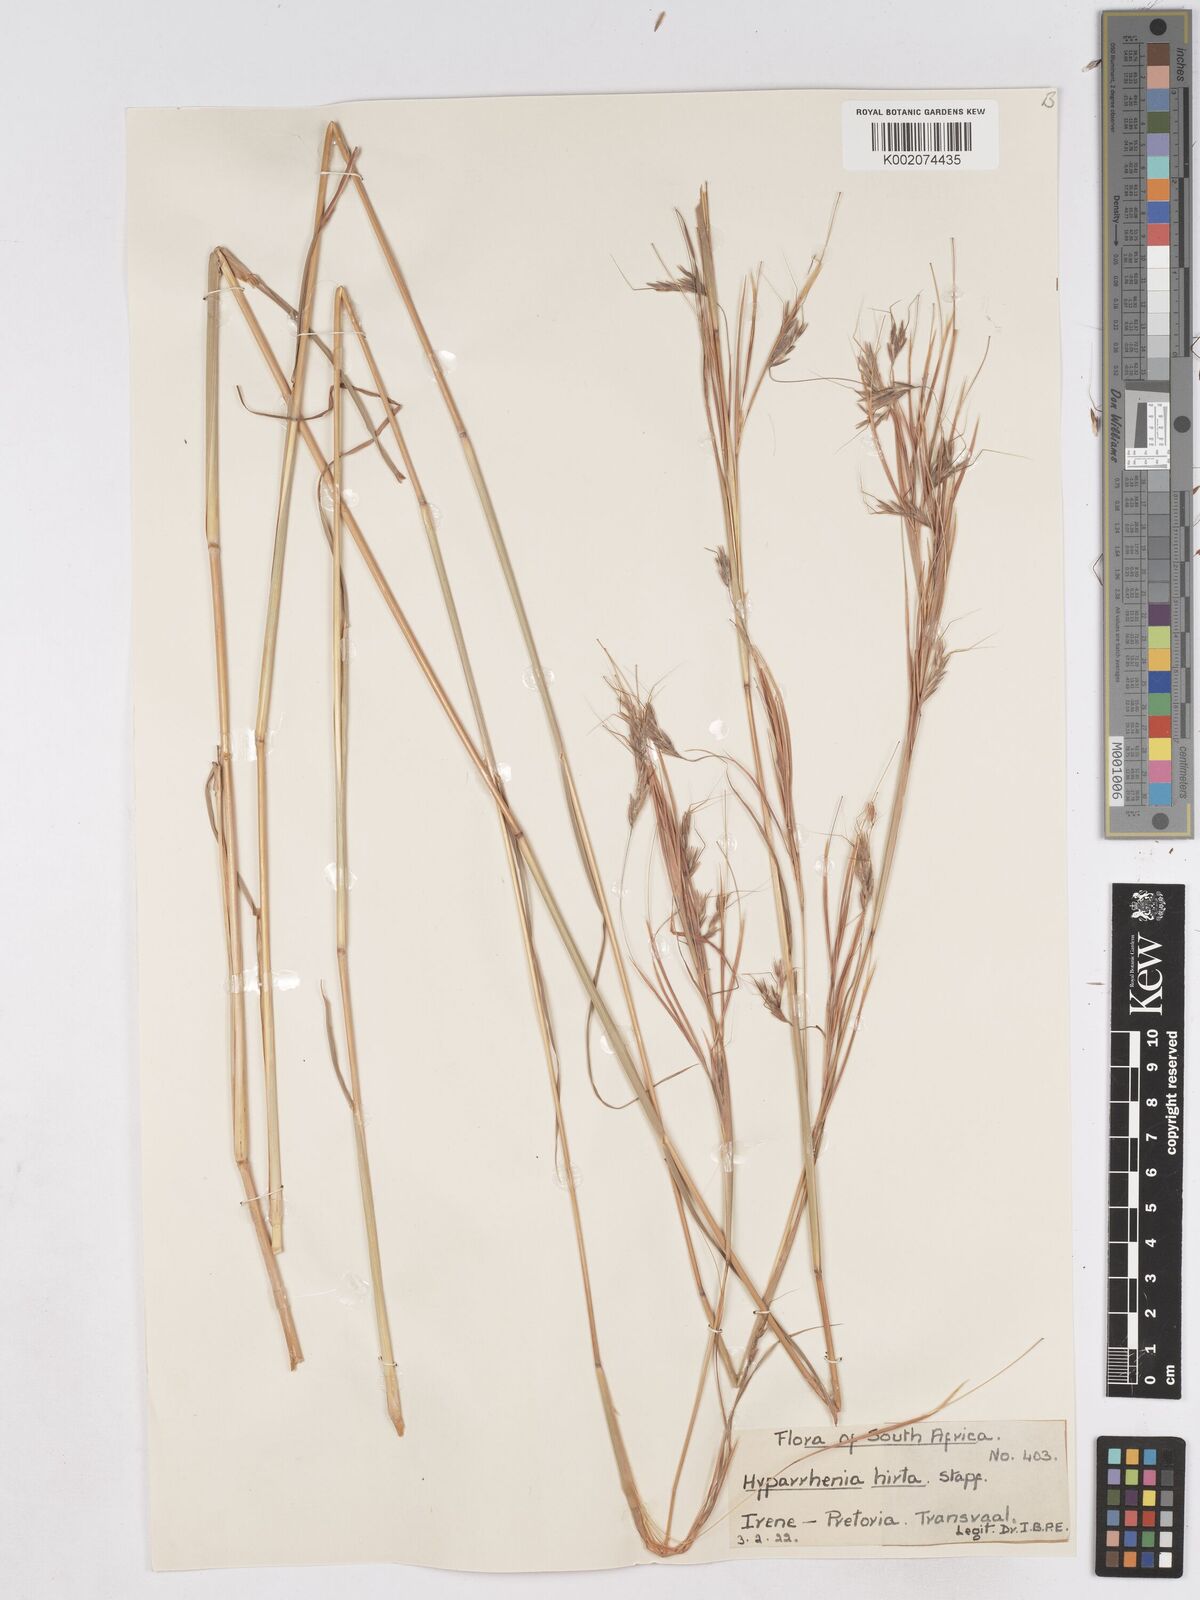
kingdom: Plantae
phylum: Tracheophyta
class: Liliopsida
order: Poales
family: Poaceae
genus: Hyparrhenia
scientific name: Hyparrhenia hirta
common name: Thatching grass
